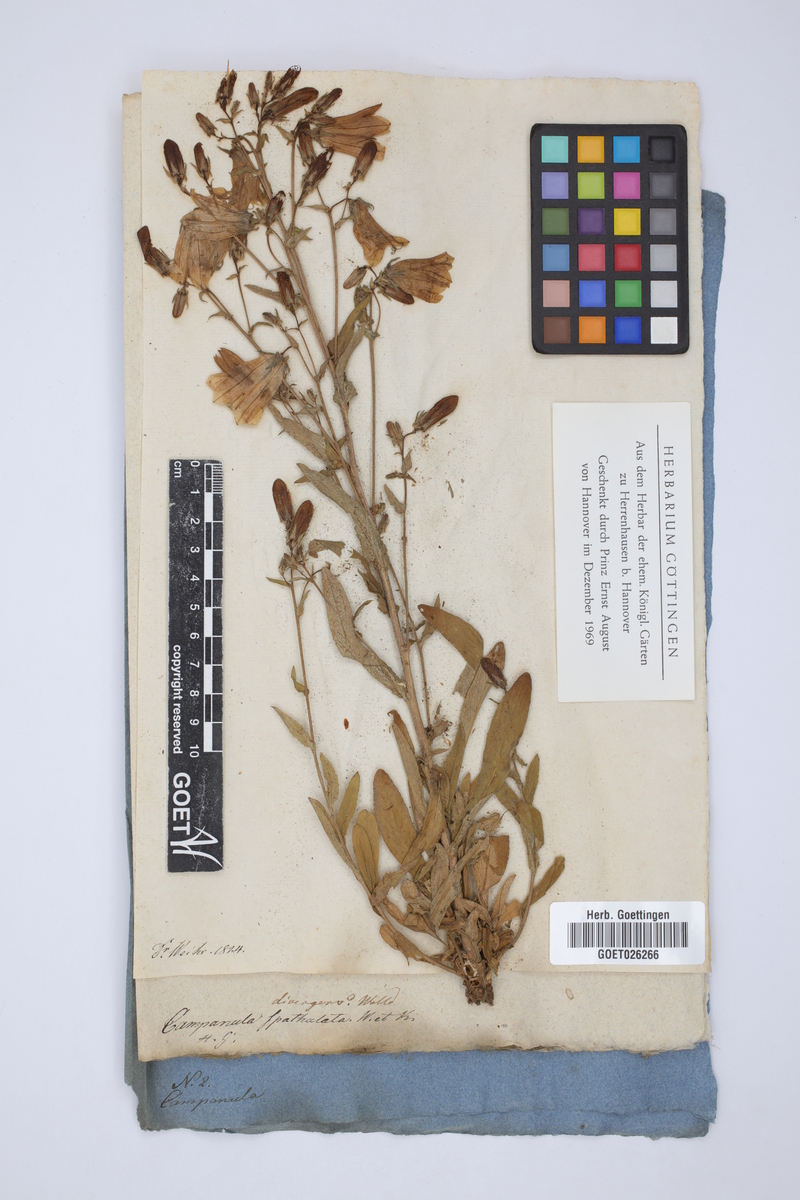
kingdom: Plantae
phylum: Tracheophyta
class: Magnoliopsida
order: Asterales
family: Campanulaceae
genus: Campanula
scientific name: Campanula sibirica
